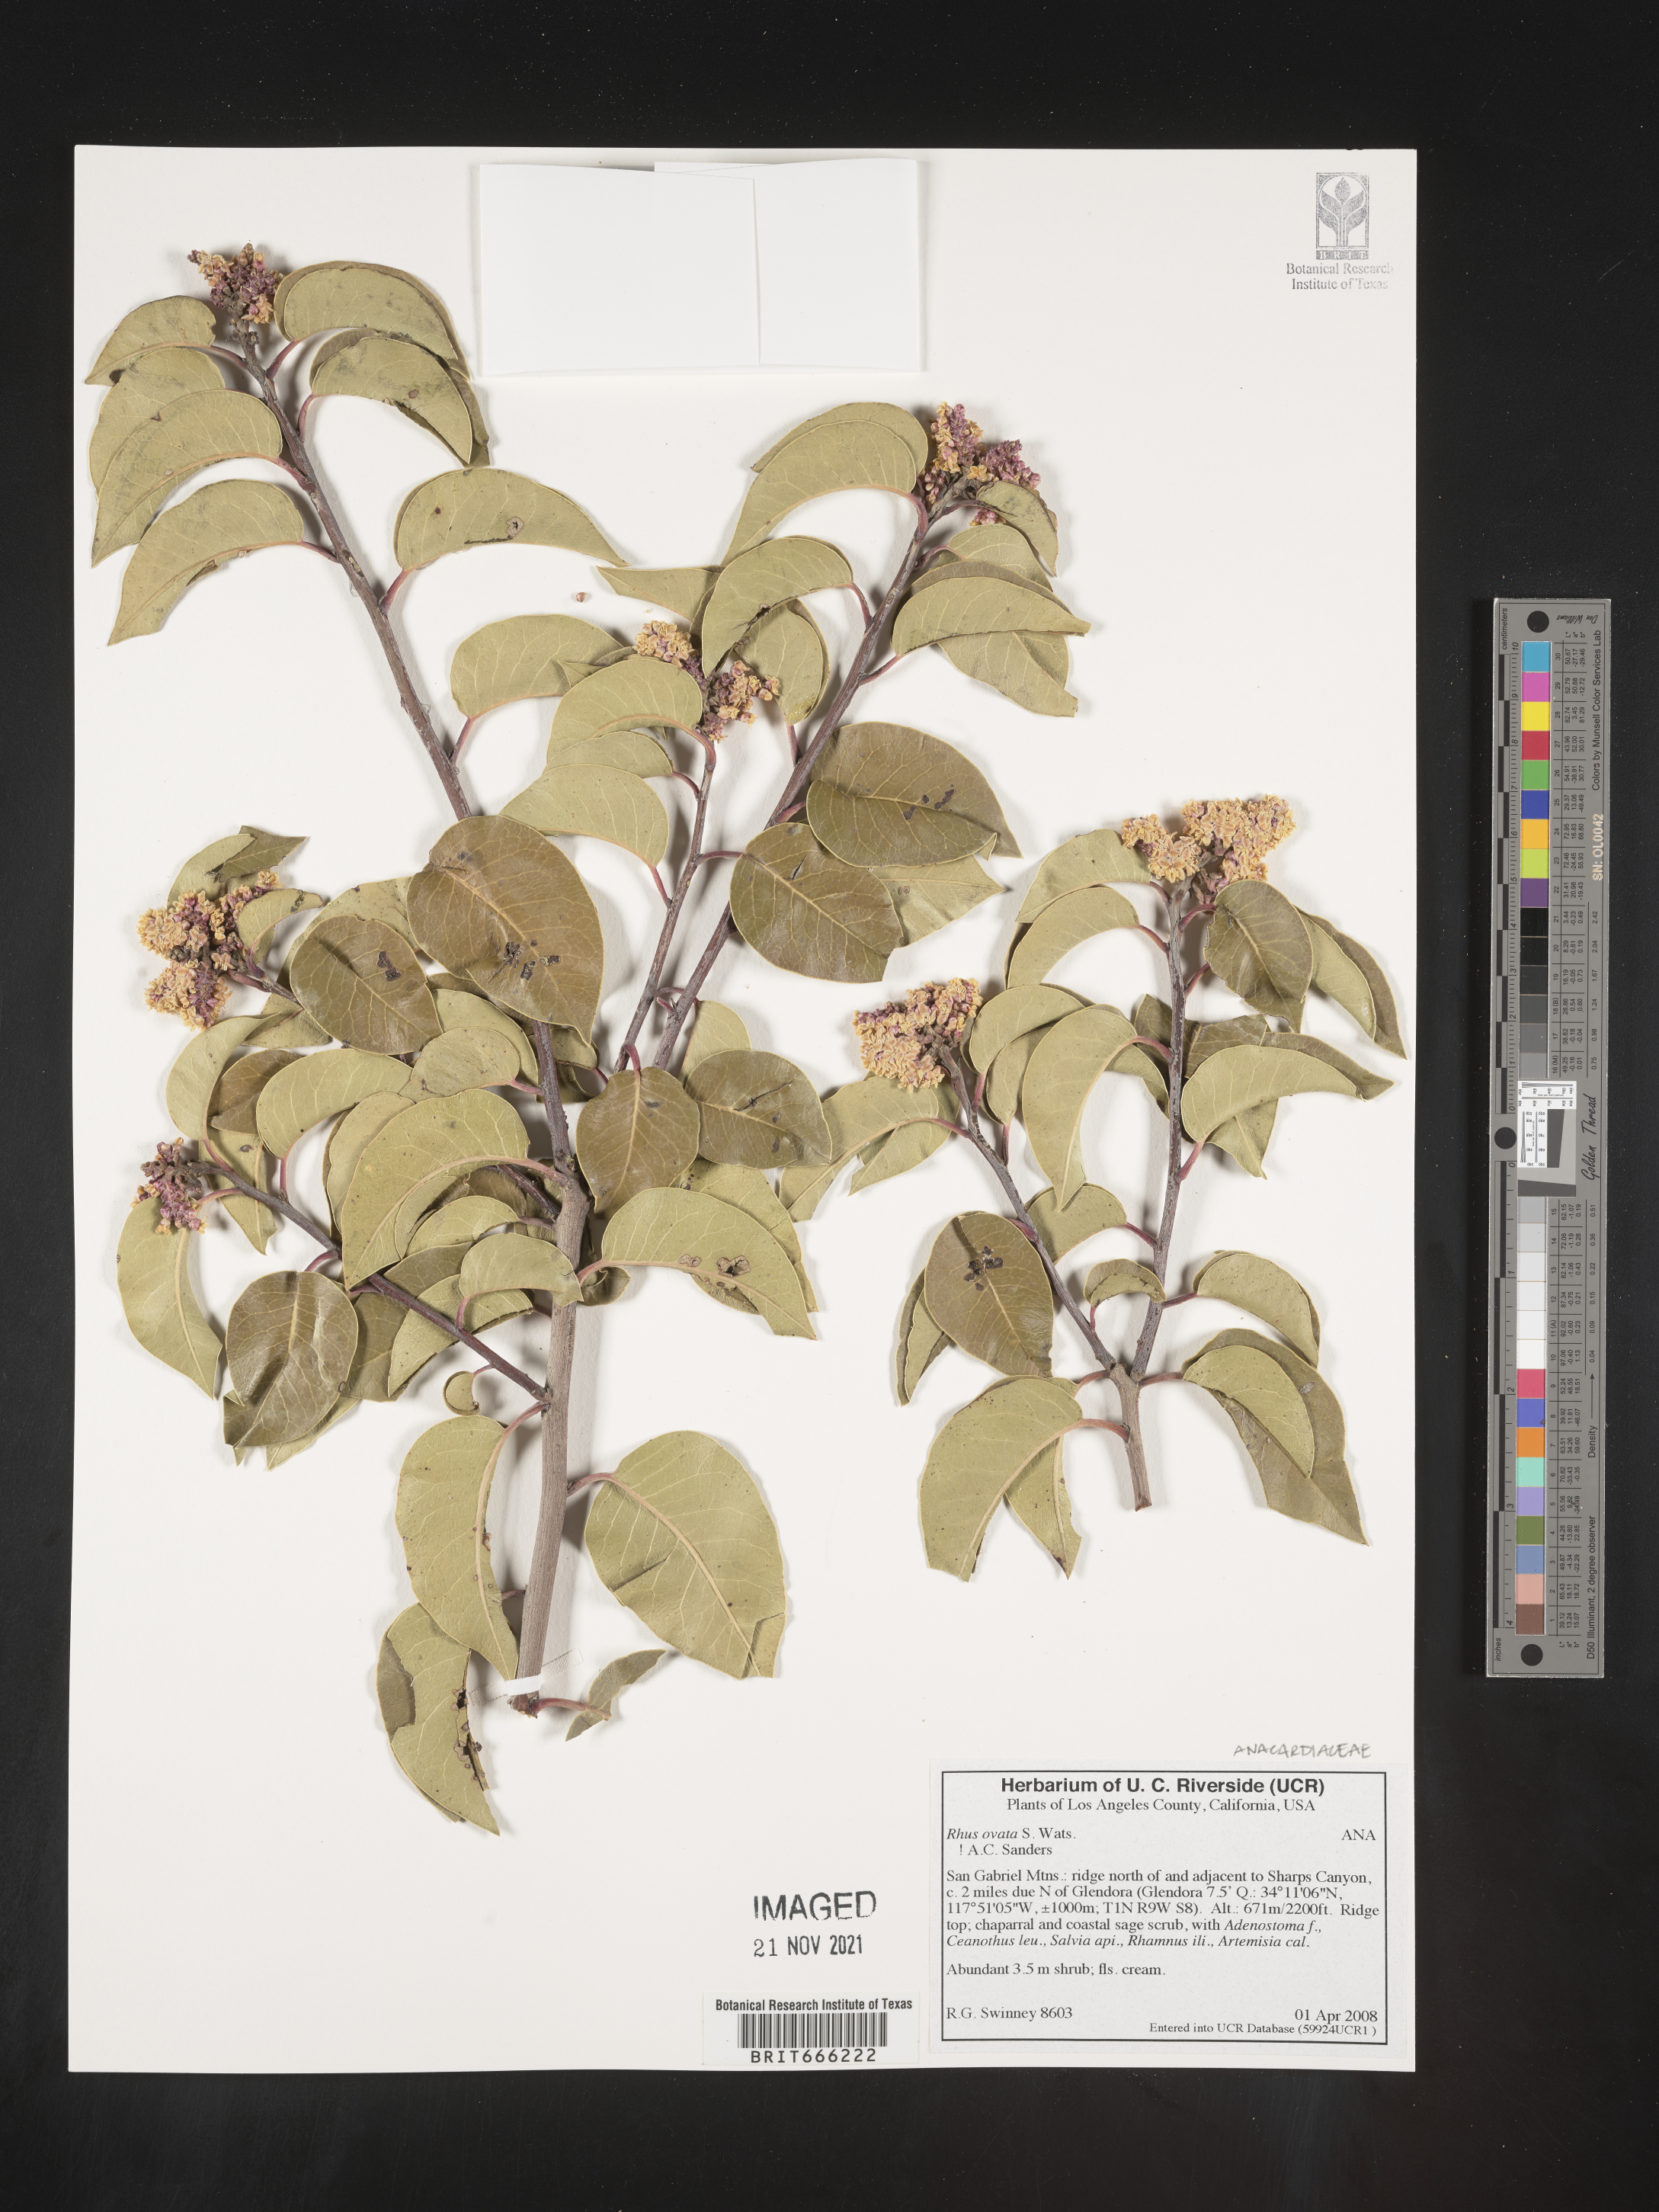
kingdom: Plantae
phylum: Tracheophyta
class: Magnoliopsida
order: Sapindales
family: Anacardiaceae
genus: Rhus
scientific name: Rhus
